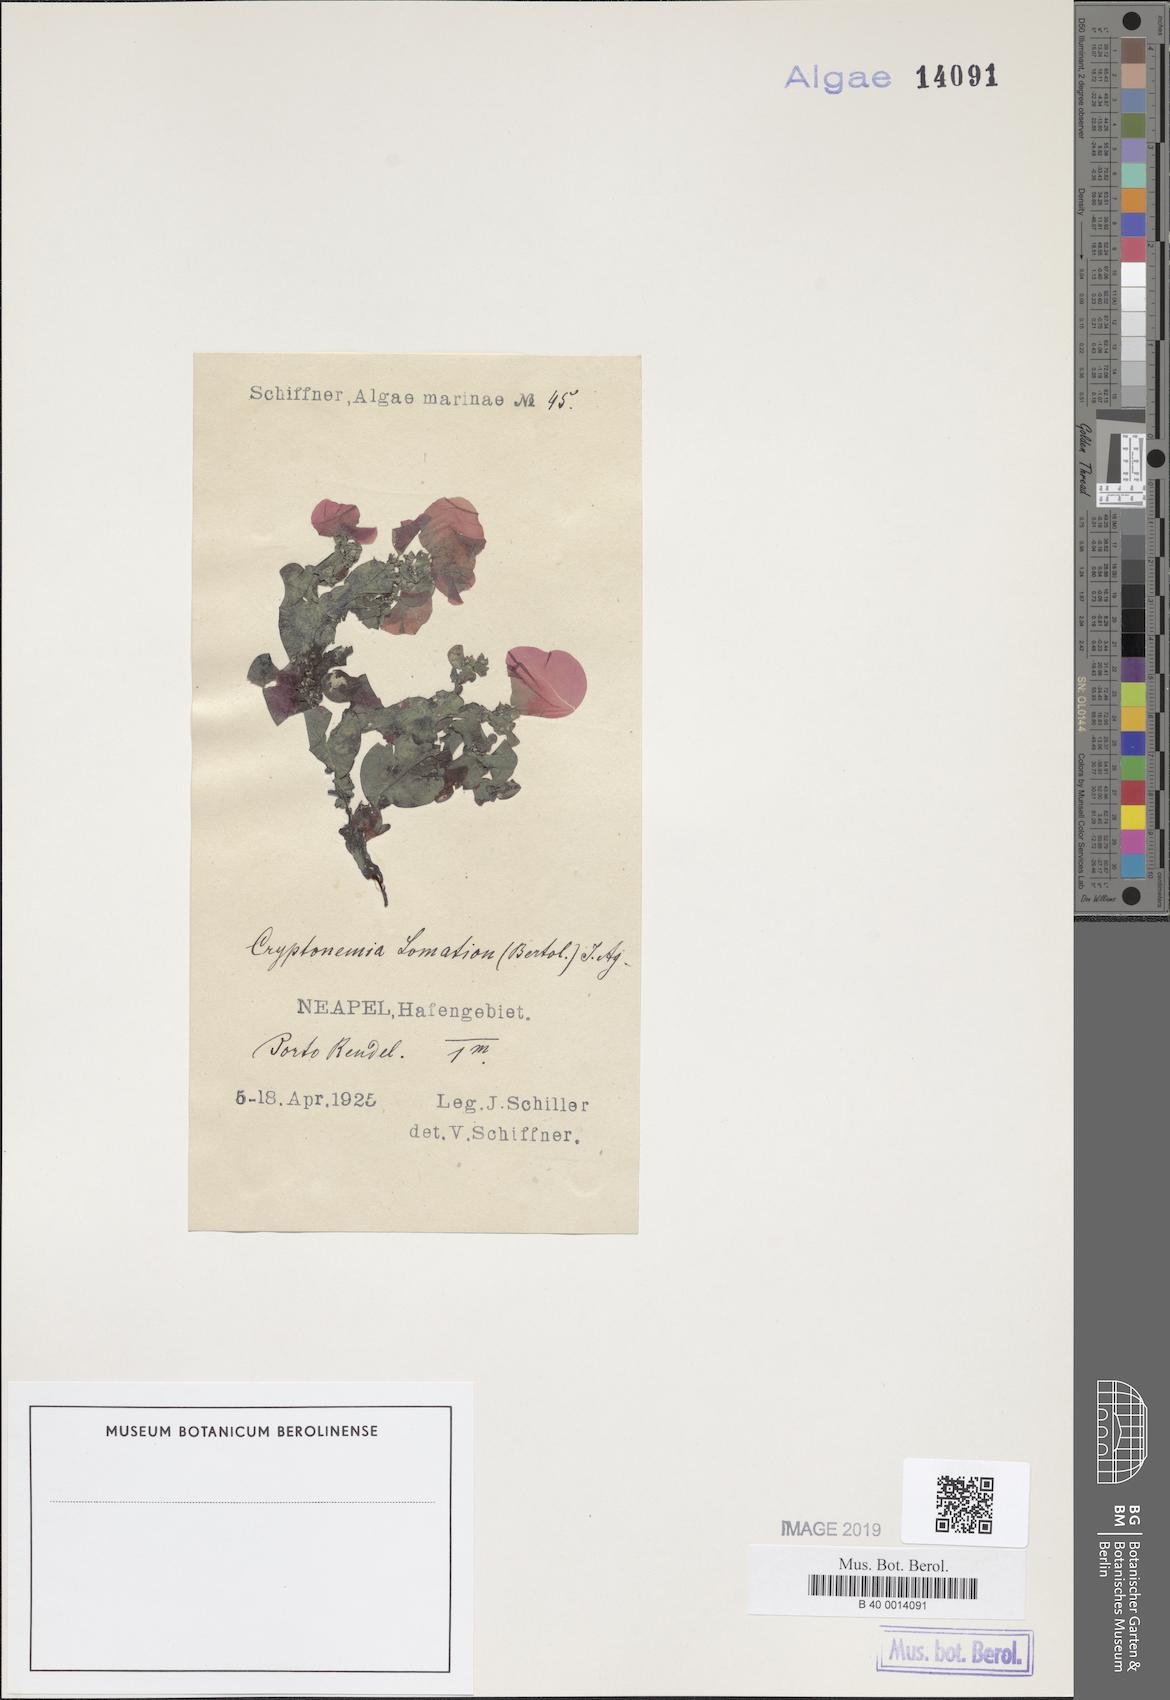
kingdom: Plantae
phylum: Rhodophyta
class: Florideophyceae
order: Halymeniales
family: Halymeniaceae
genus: Cryptonemia
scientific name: Cryptonemia lomation
